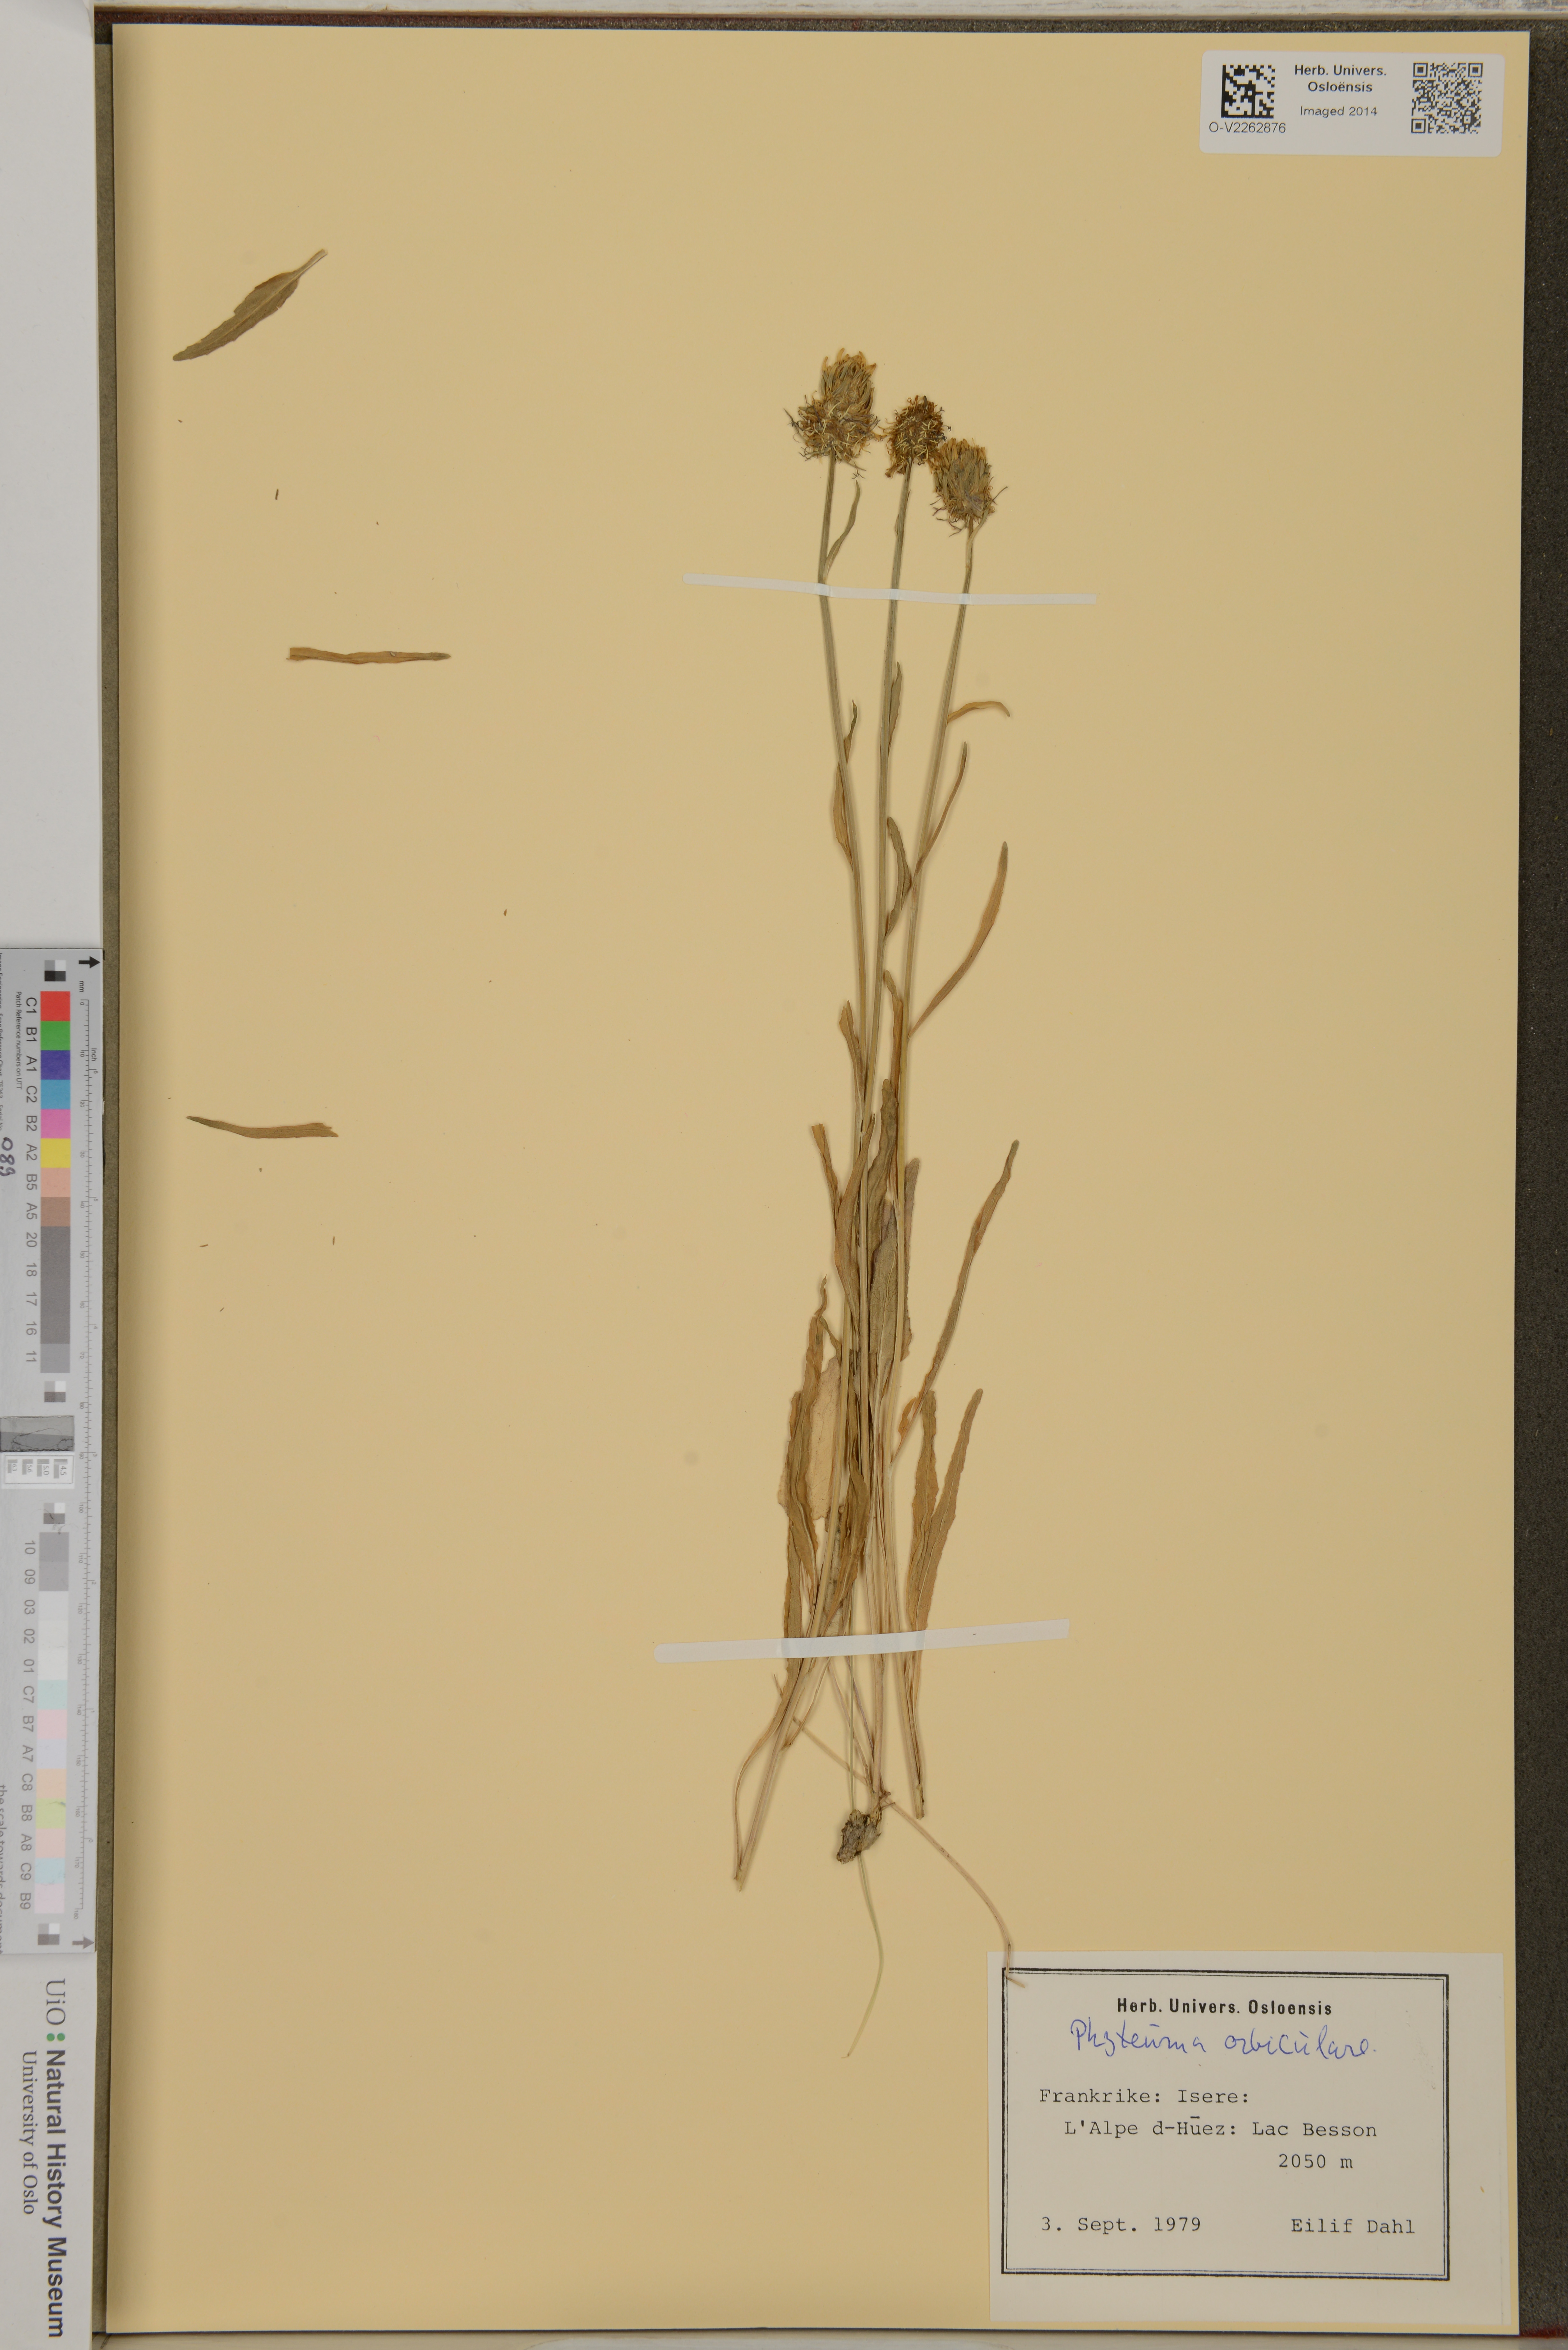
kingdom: Plantae
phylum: Tracheophyta
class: Magnoliopsida
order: Asterales
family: Campanulaceae
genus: Phyteuma
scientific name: Phyteuma orbiculare
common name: Round-headed rampion
